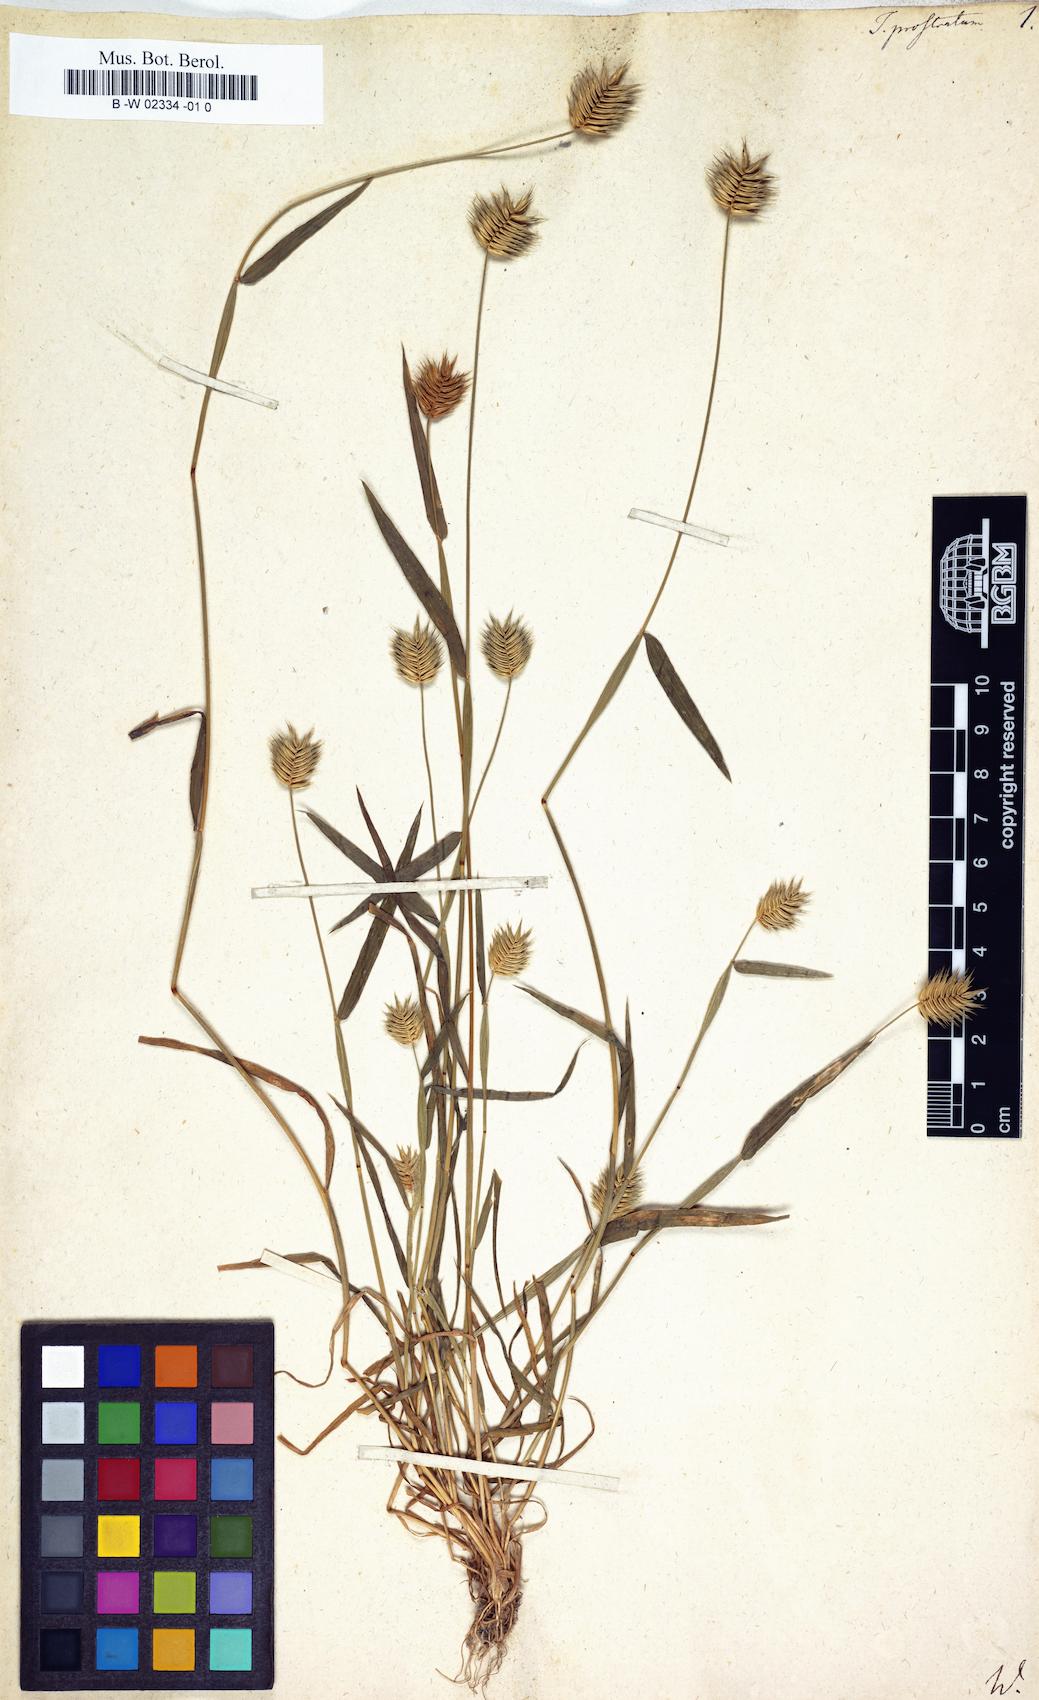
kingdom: Plantae
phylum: Tracheophyta
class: Liliopsida
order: Poales
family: Poaceae
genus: Eremopyrum
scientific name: Eremopyrum
